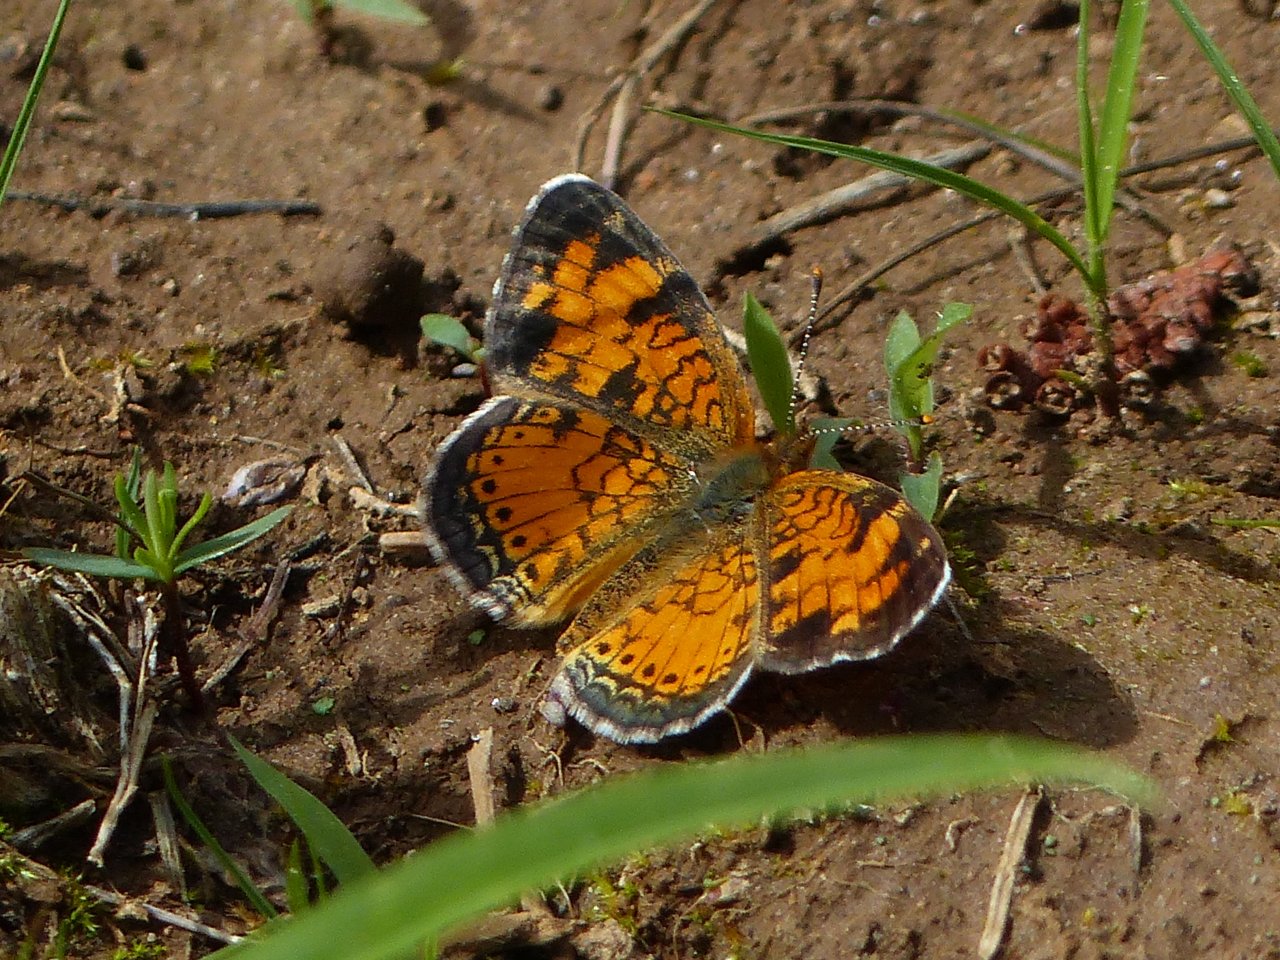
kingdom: Animalia
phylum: Arthropoda
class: Insecta
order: Lepidoptera
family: Nymphalidae
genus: Phyciodes
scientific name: Phyciodes tharos
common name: Northern Crescent
